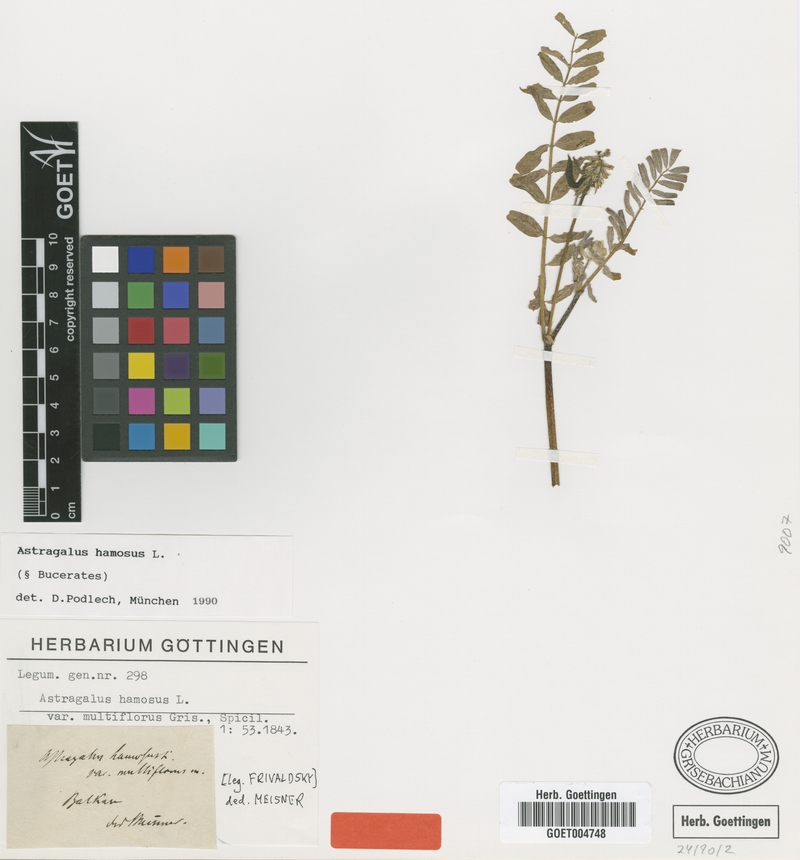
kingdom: Plantae
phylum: Tracheophyta
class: Magnoliopsida
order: Fabales
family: Fabaceae
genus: Astragalus
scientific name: Astragalus hamosus
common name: European milkvetch
